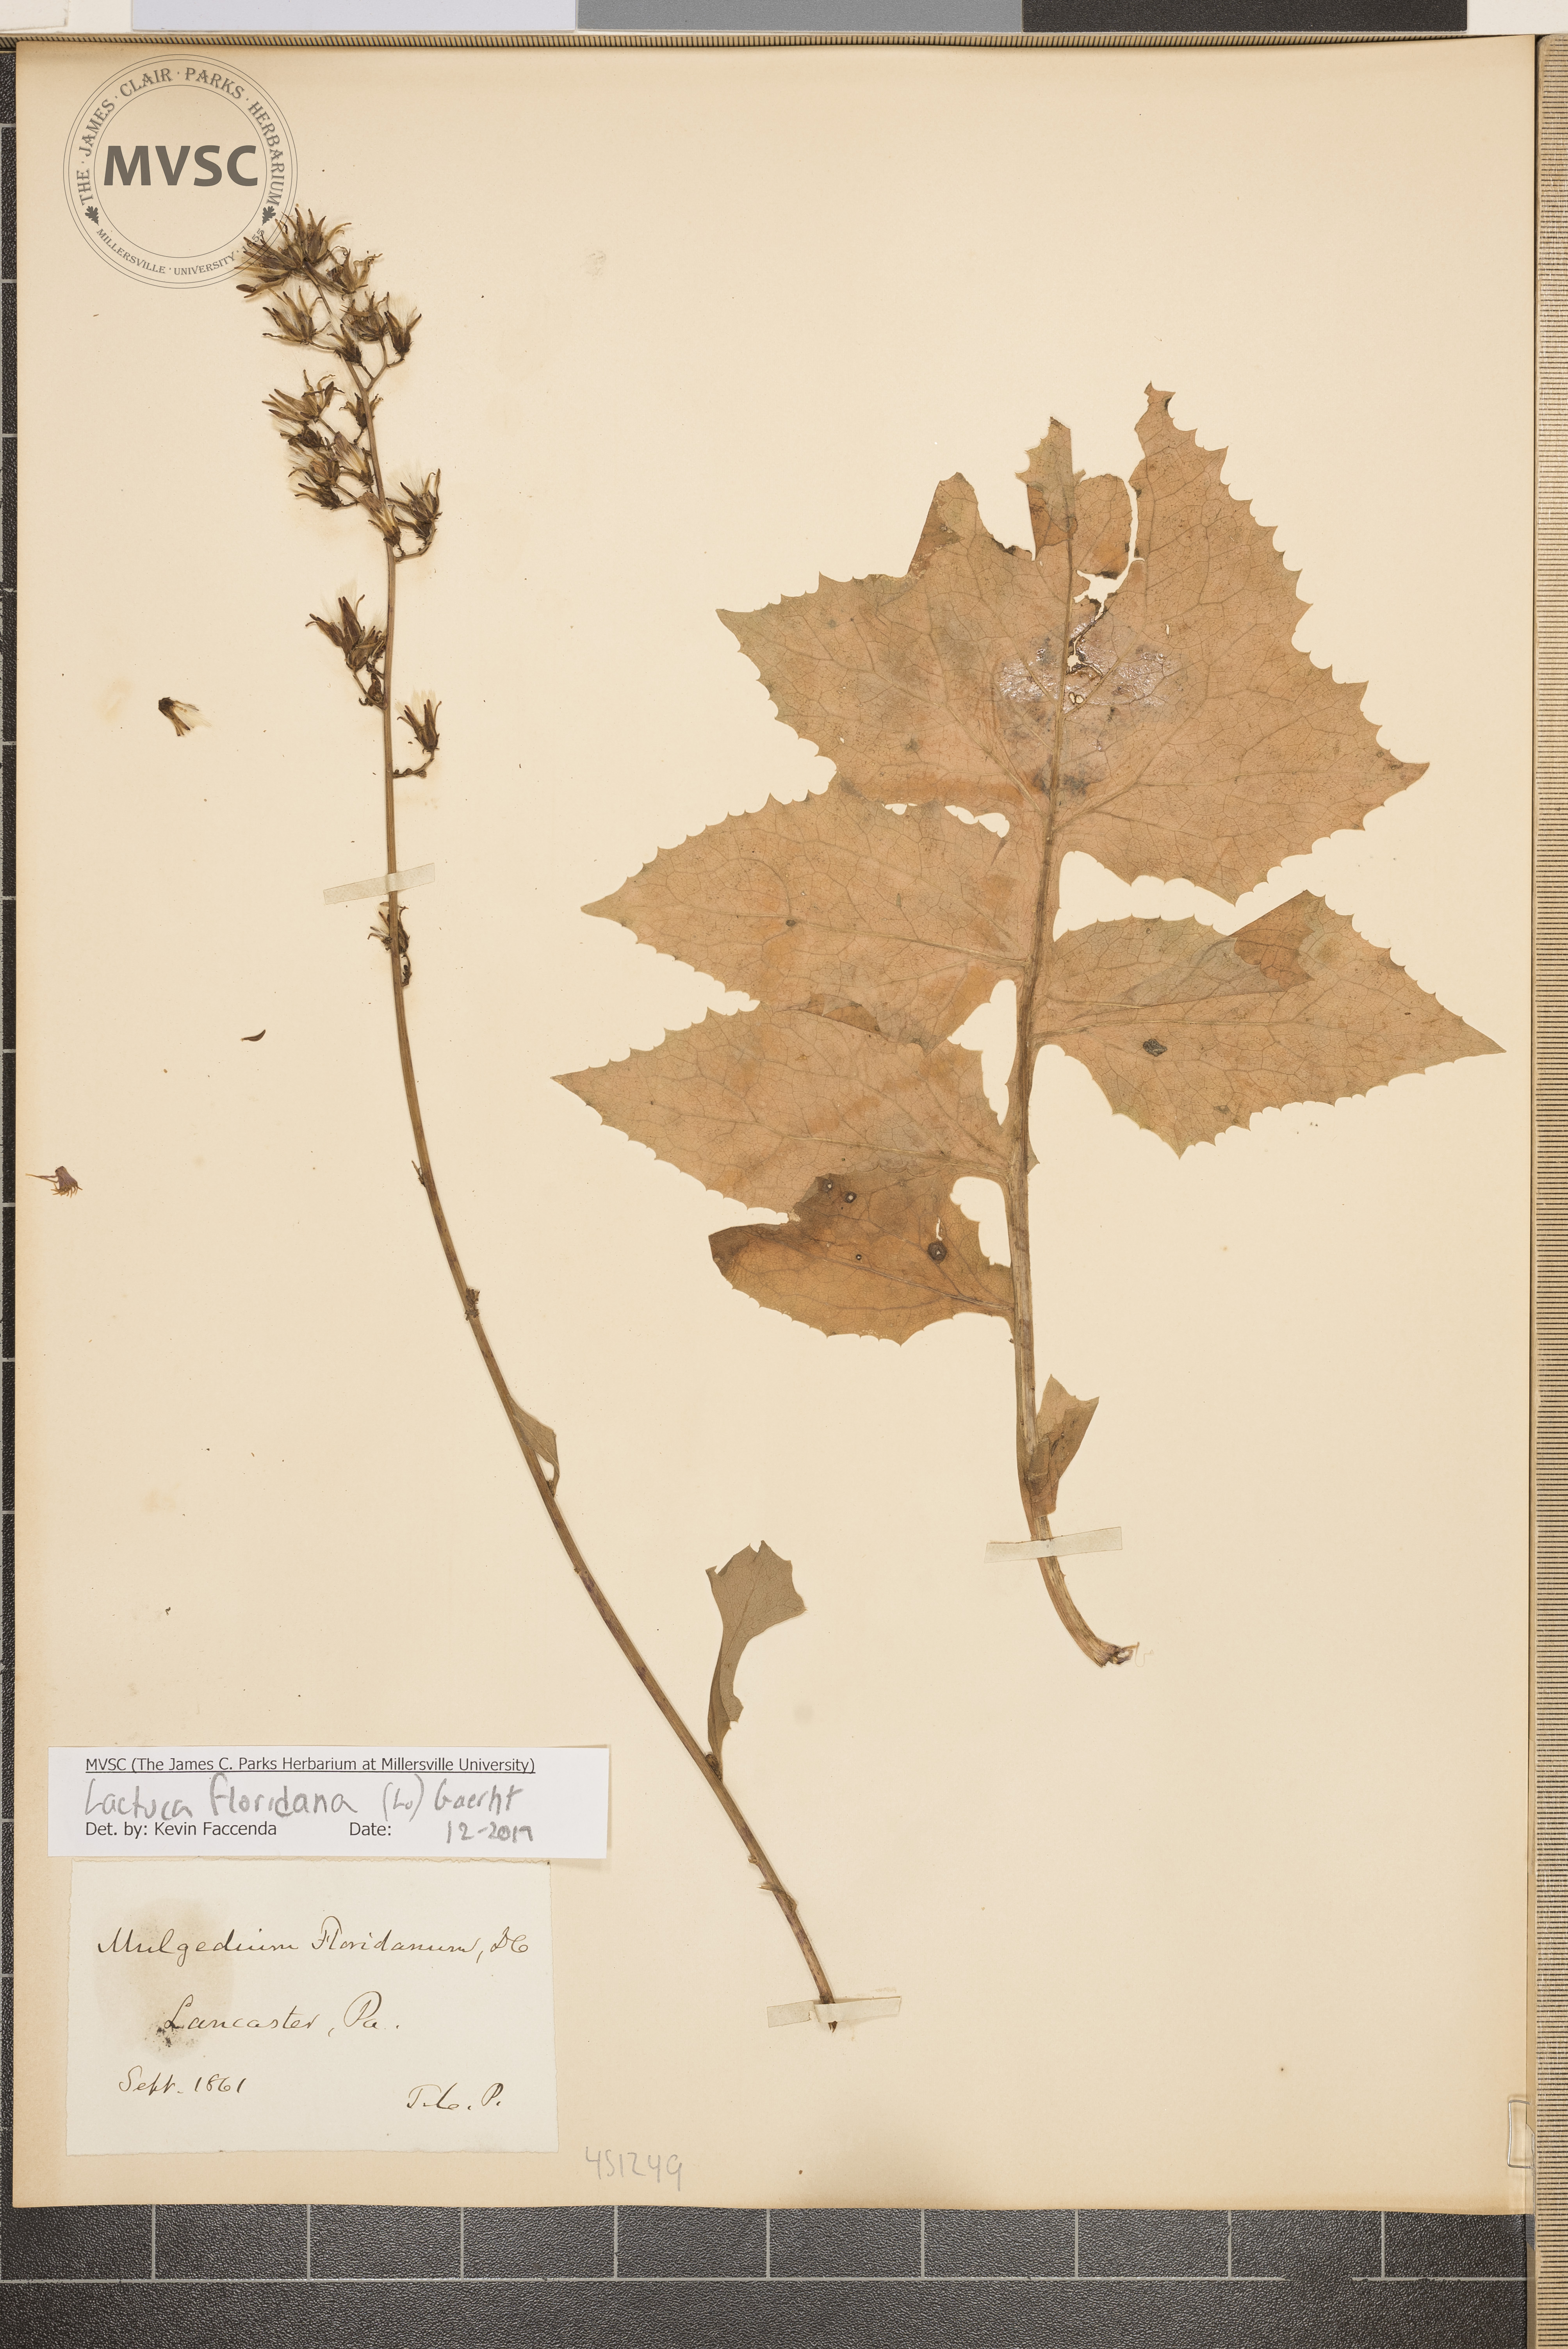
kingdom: Plantae
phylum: Tracheophyta
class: Magnoliopsida
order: Asterales
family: Asteraceae
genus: Lactuca
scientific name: Lactuca floridana
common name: Woodland lettuce
